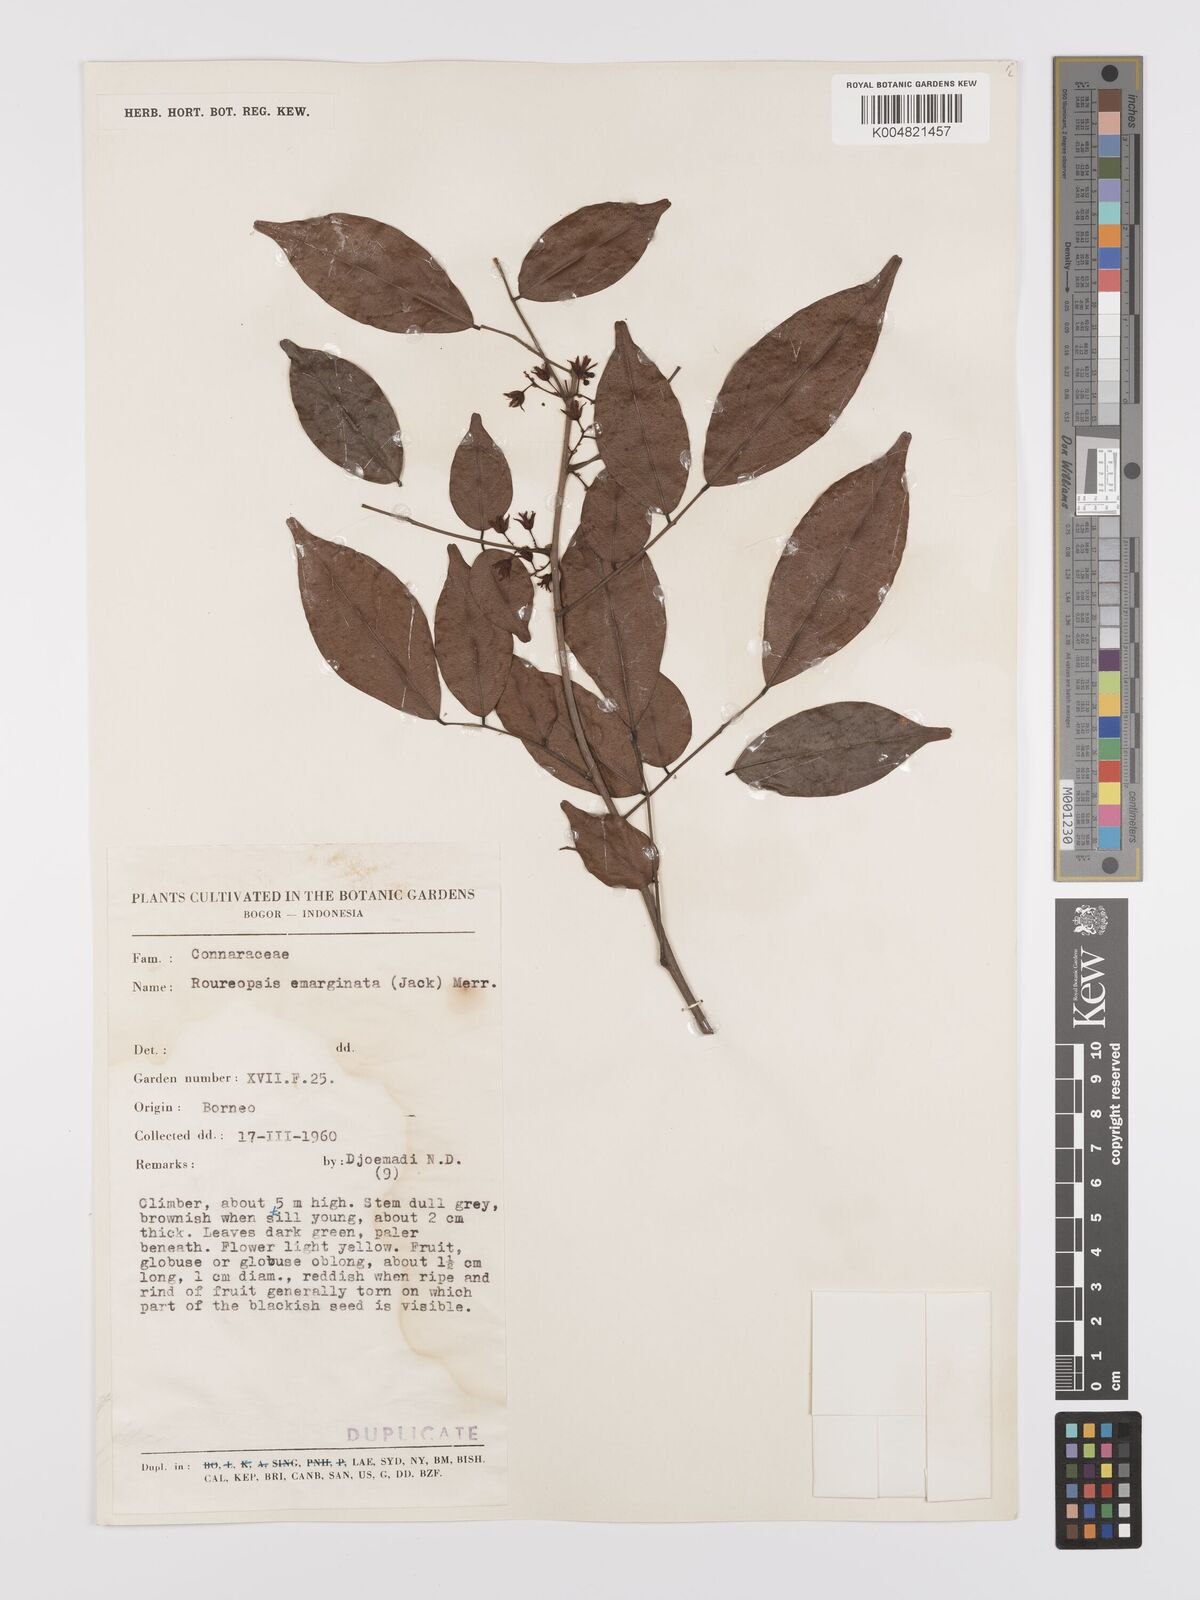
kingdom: Plantae
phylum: Tracheophyta
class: Magnoliopsida
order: Oxalidales
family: Connaraceae
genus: Rourea
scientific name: Rourea emarginata
